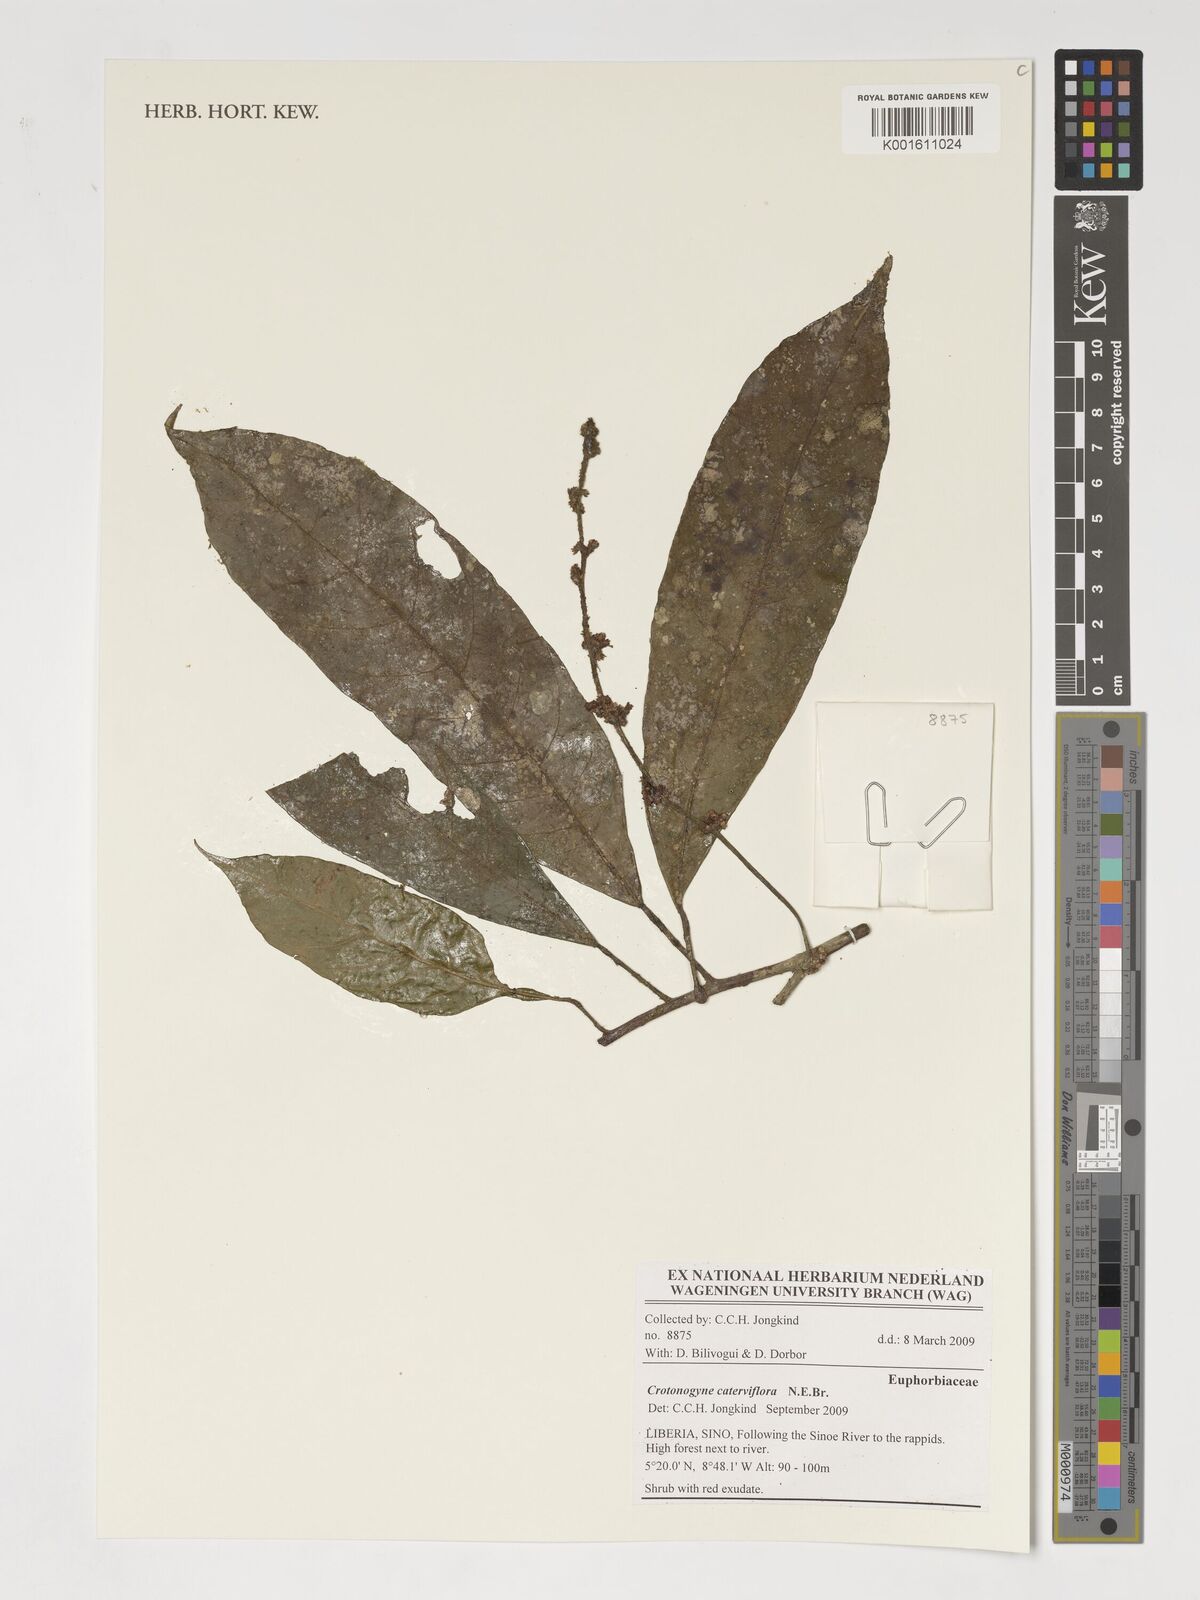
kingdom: Plantae
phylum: Tracheophyta
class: Magnoliopsida
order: Malpighiales
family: Euphorbiaceae
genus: Crotonogyne
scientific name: Crotonogyne caterviflora
